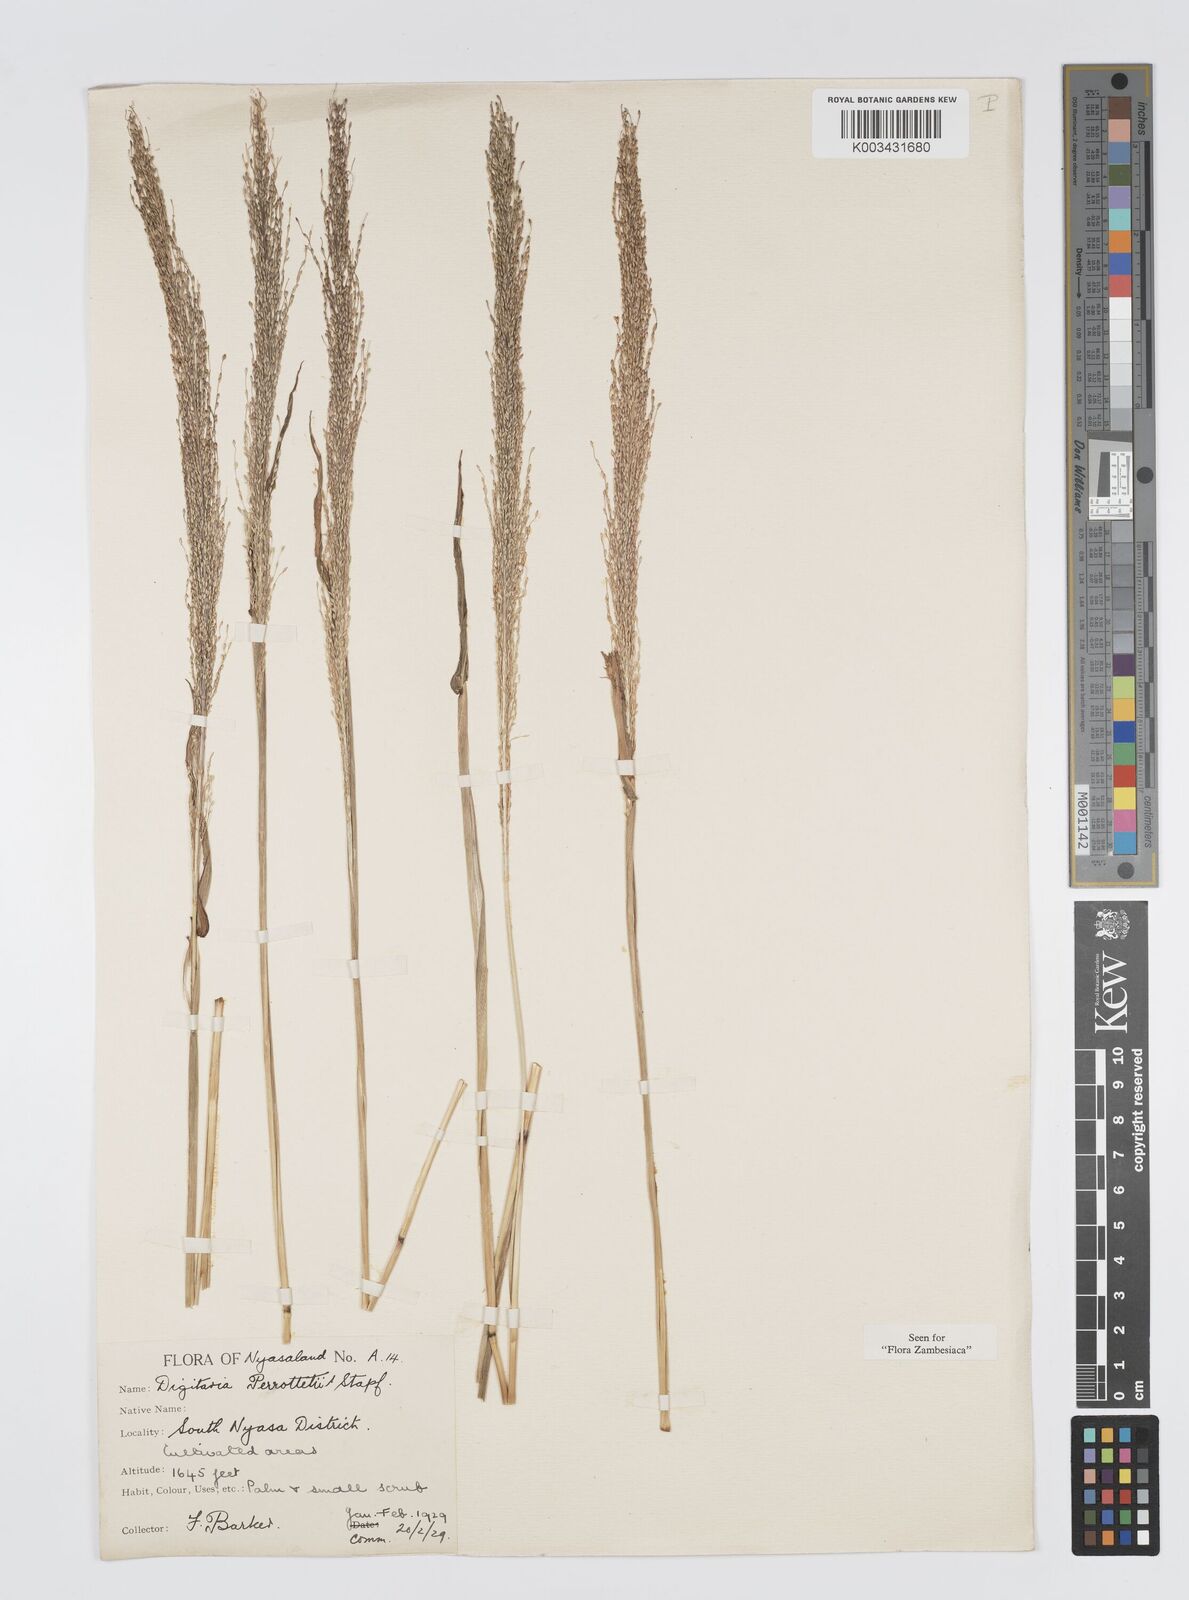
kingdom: Plantae
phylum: Tracheophyta
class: Liliopsida
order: Poales
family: Poaceae
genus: Digitaria
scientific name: Digitaria perrottetii
